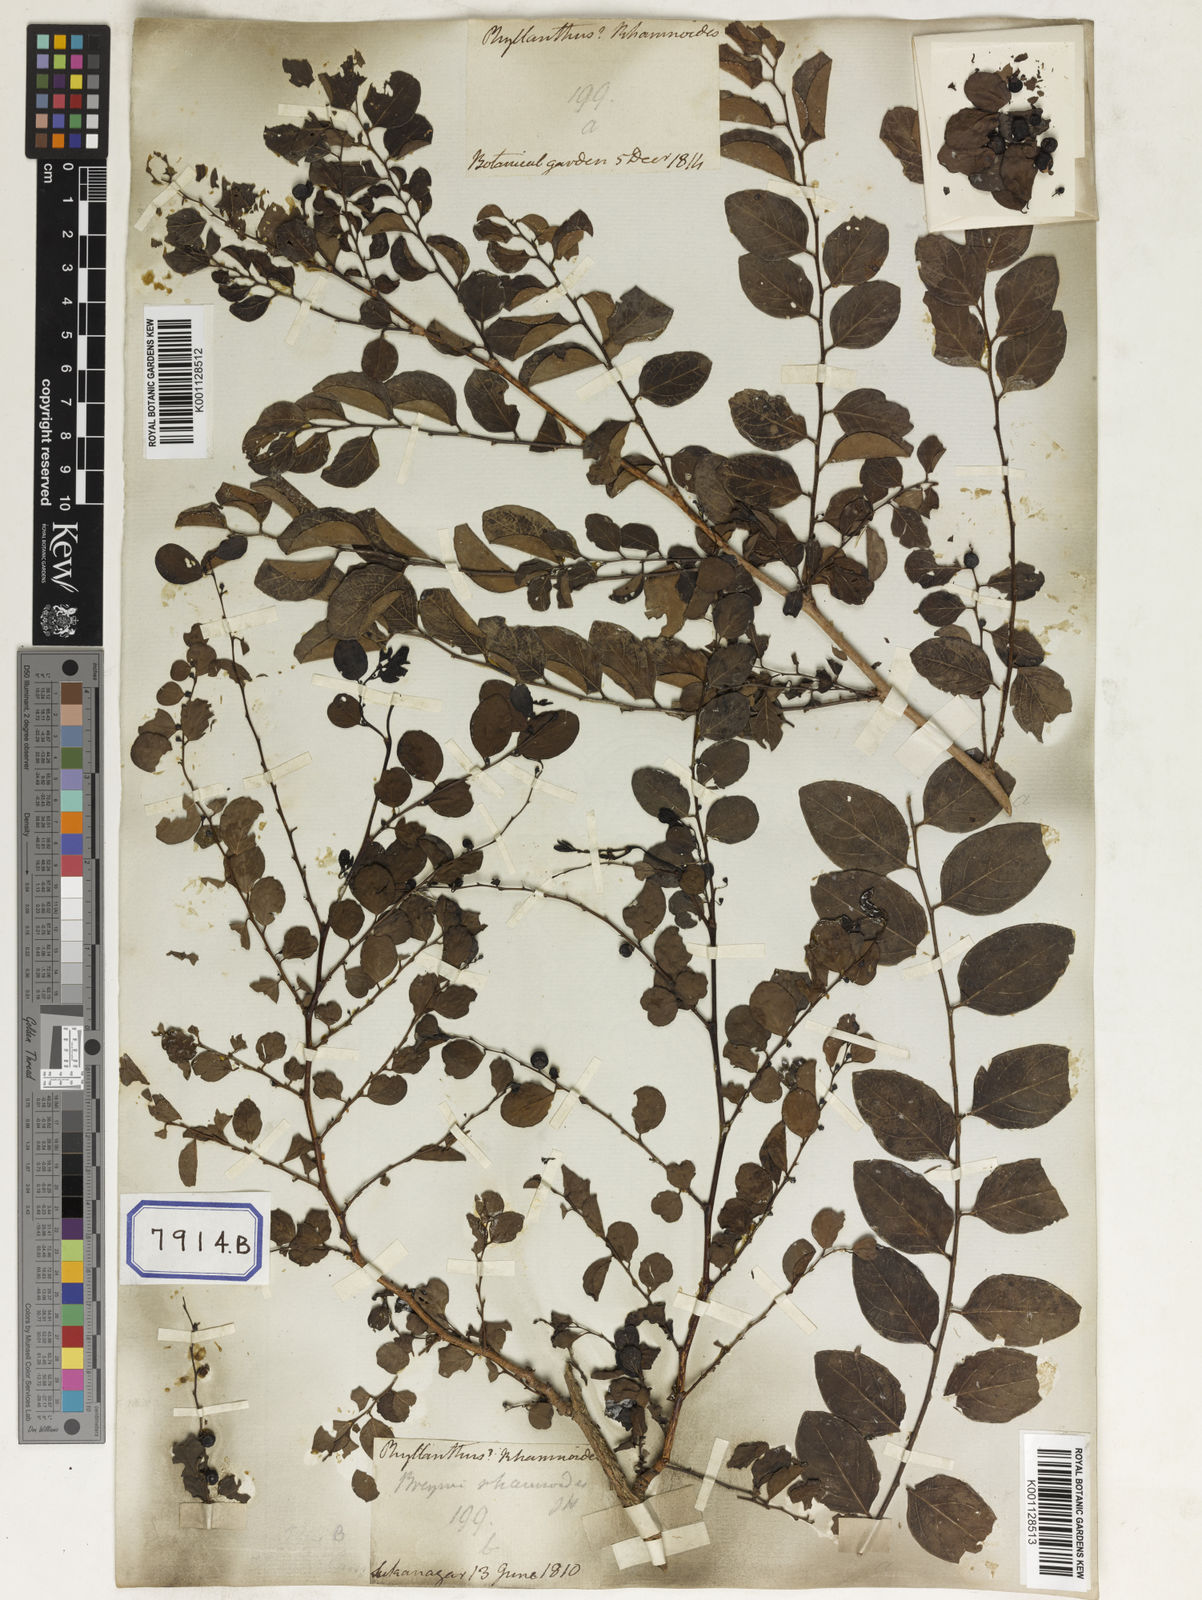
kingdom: Plantae
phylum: Tracheophyta
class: Magnoliopsida
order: Malpighiales
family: Euphorbiaceae
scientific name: Euphorbiaceae
